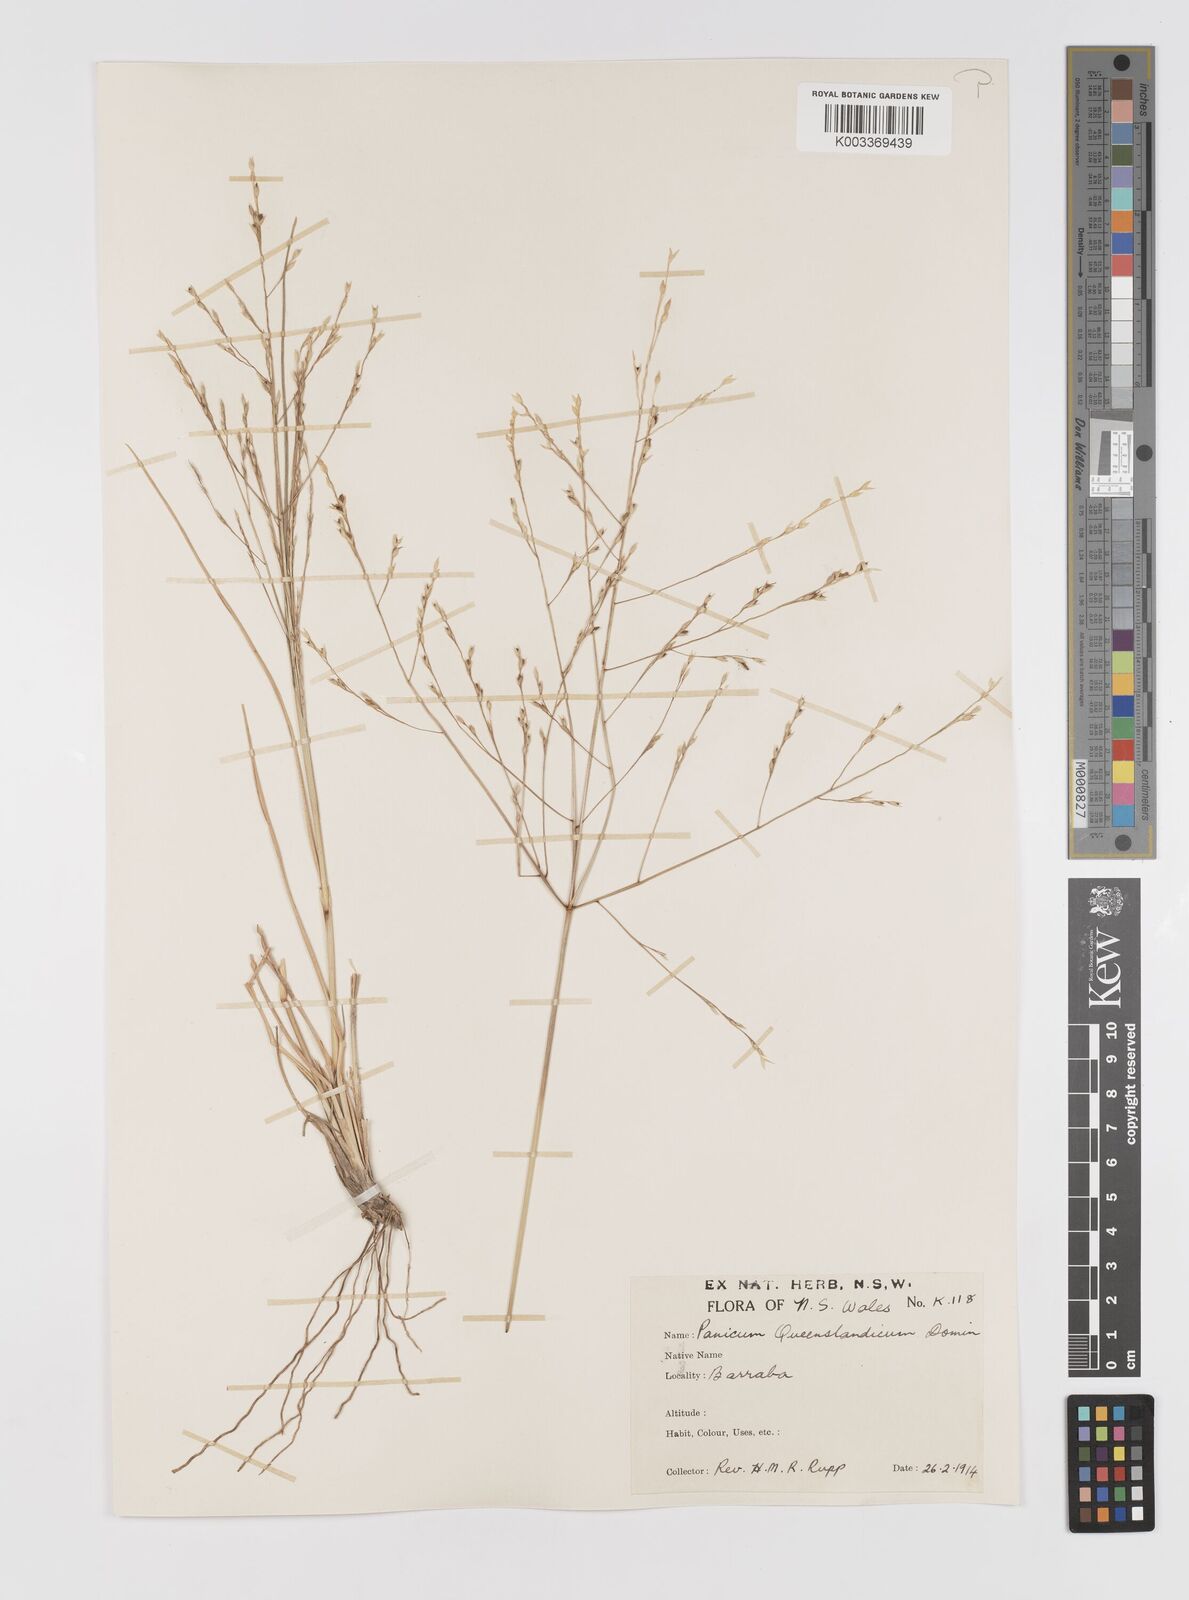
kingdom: Plantae
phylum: Tracheophyta
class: Liliopsida
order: Poales
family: Poaceae
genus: Panicum
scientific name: Panicum queenslandicum
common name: Yabila grass
